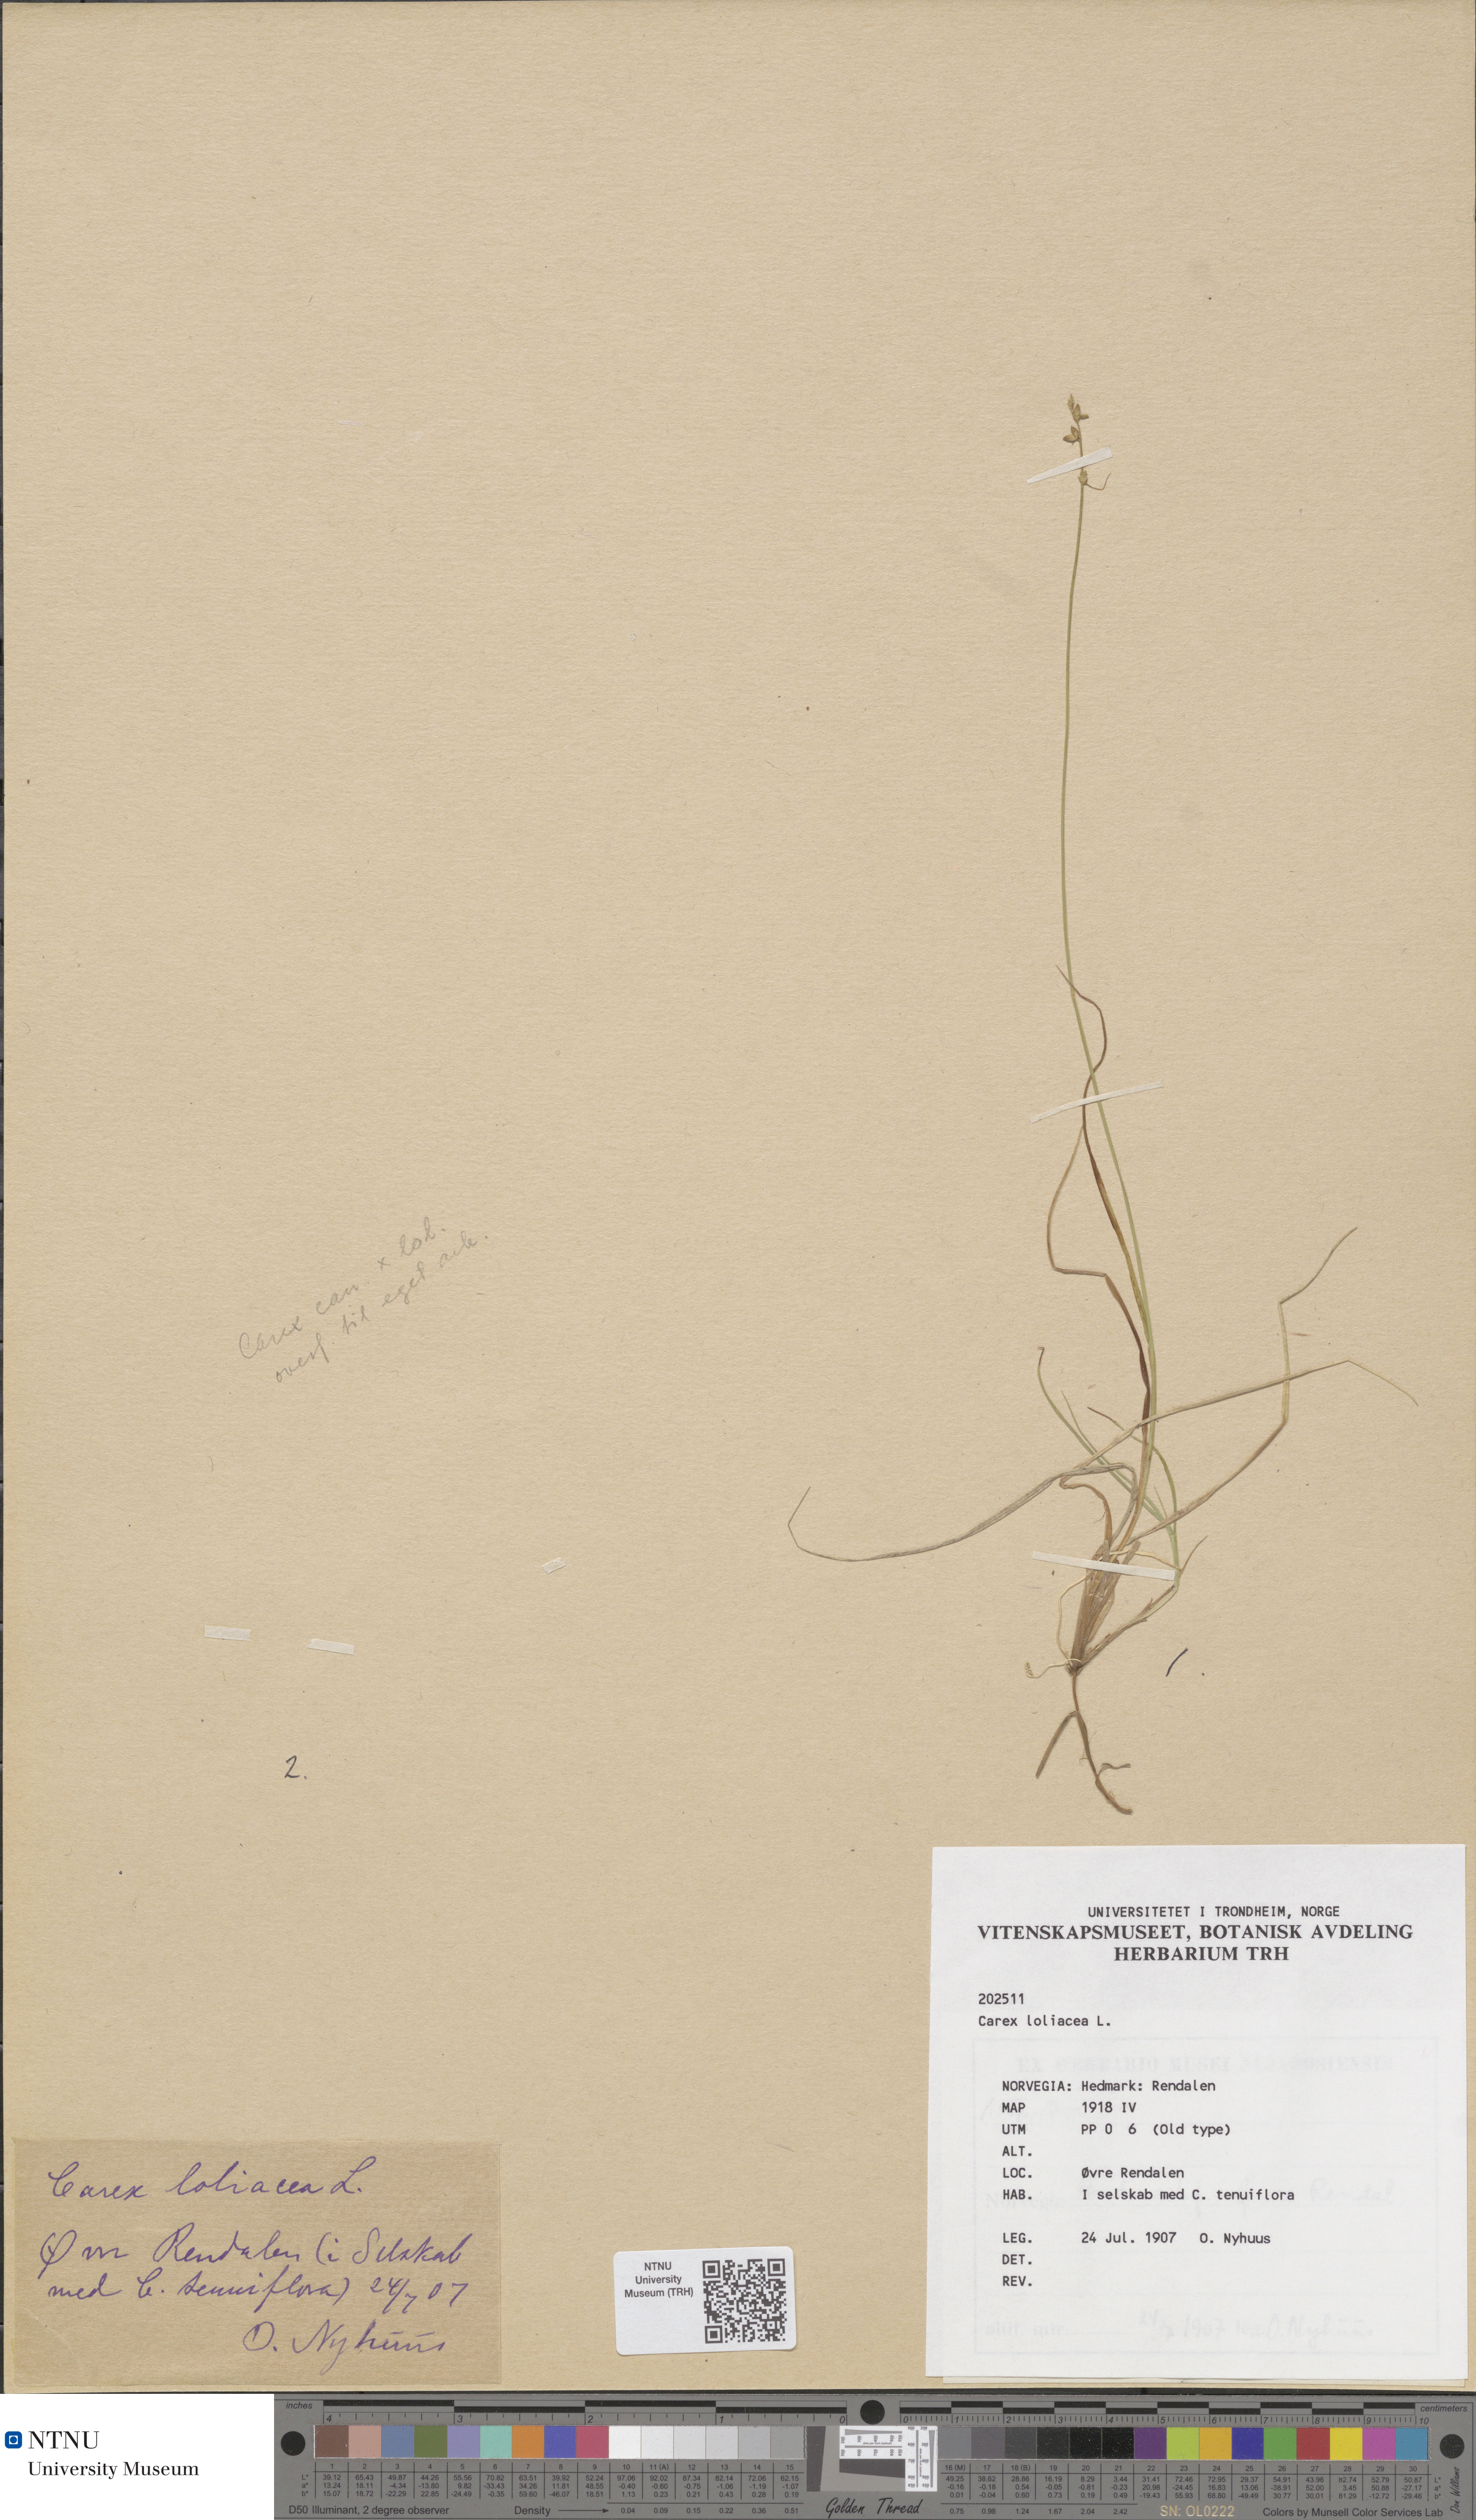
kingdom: Plantae
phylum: Tracheophyta
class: Liliopsida
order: Poales
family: Cyperaceae
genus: Carex
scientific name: Carex loliacea
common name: Ryegrass sedge
